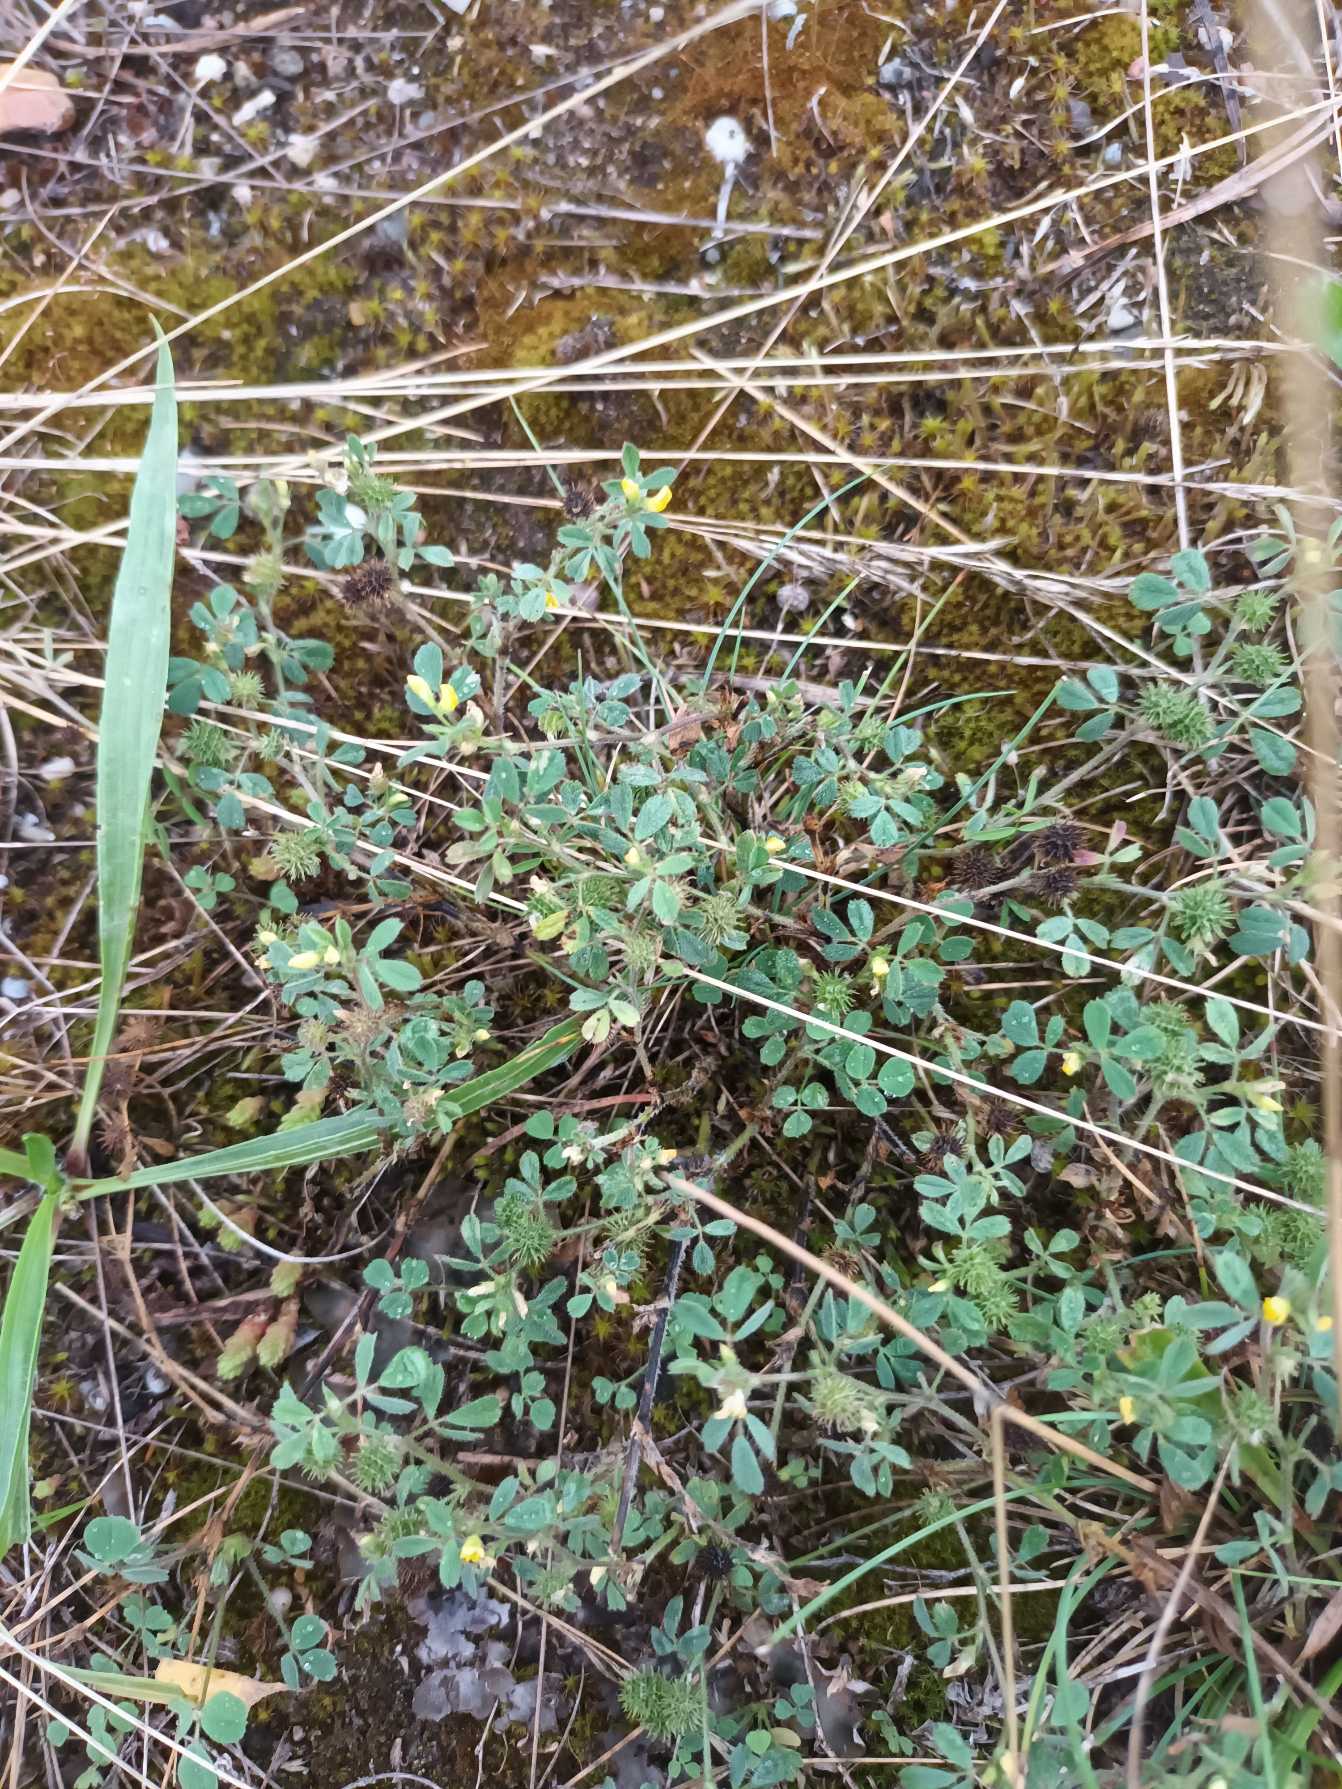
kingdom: Plantae
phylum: Tracheophyta
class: Magnoliopsida
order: Fabales
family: Fabaceae
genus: Medicago
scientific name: Medicago minima
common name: Liden sneglebælg
